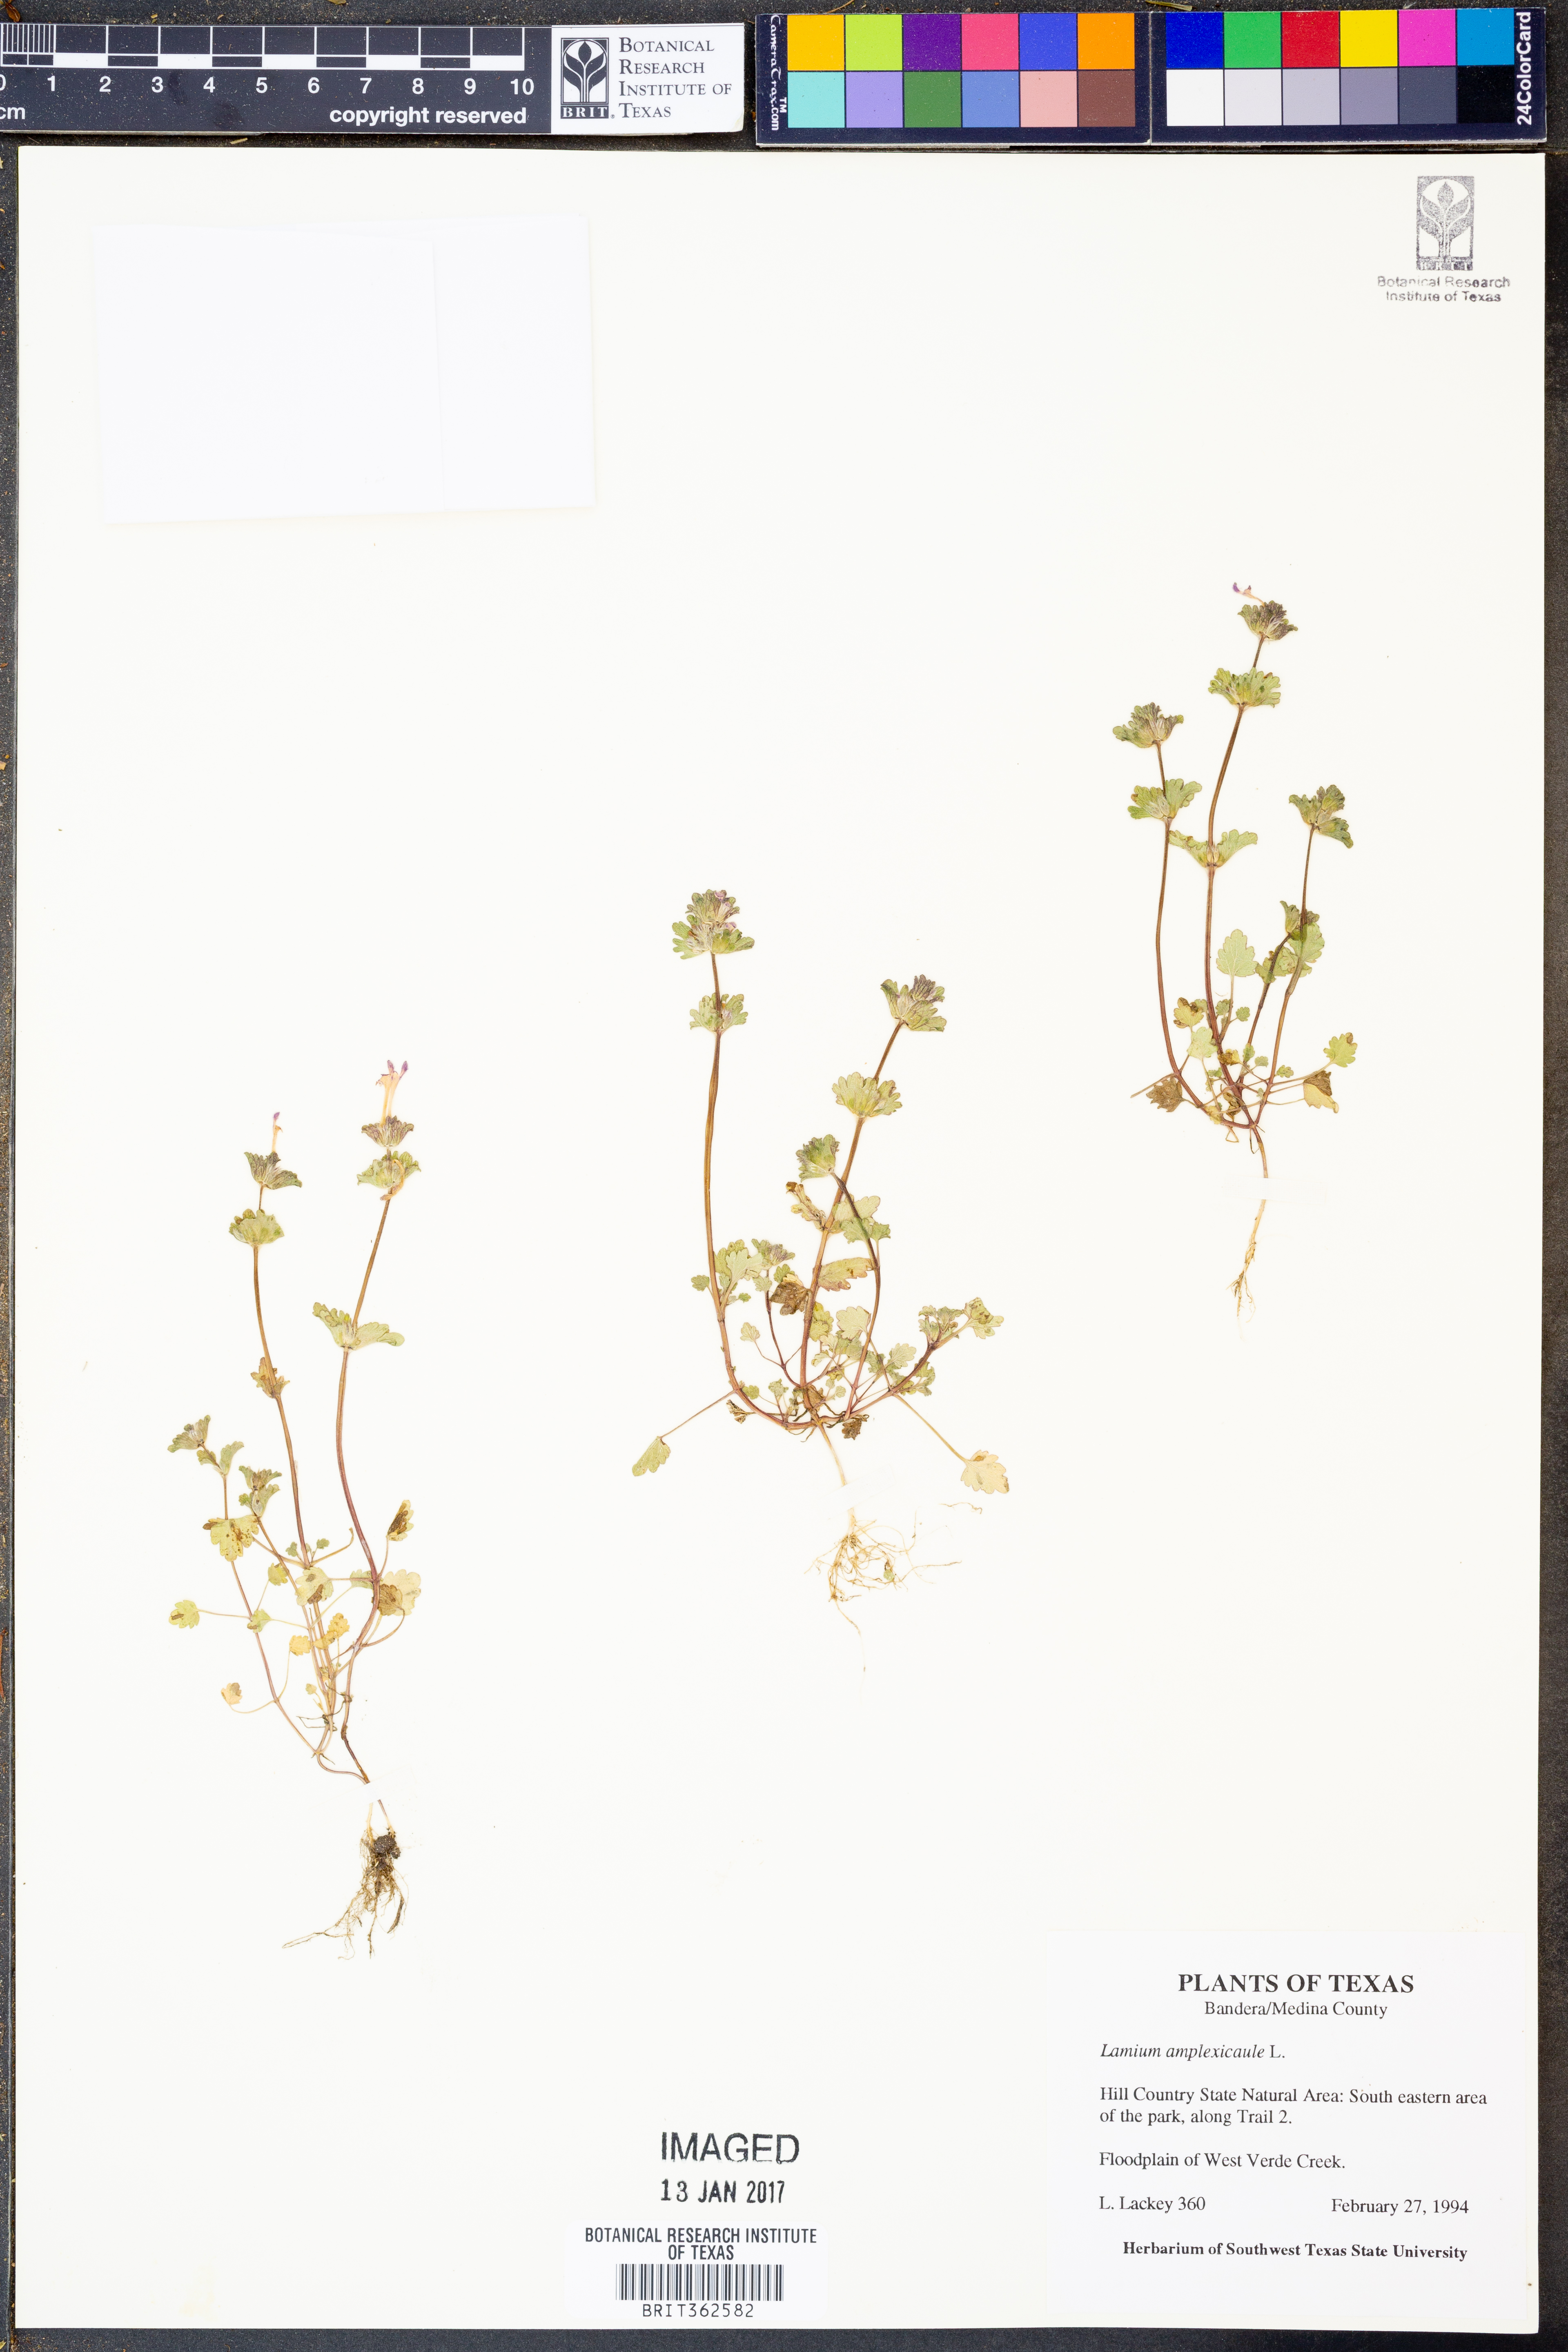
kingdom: Plantae
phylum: Tracheophyta
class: Magnoliopsida
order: Lamiales
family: Lamiaceae
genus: Lamium
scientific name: Lamium amplexicaule
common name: Henbit dead-nettle
